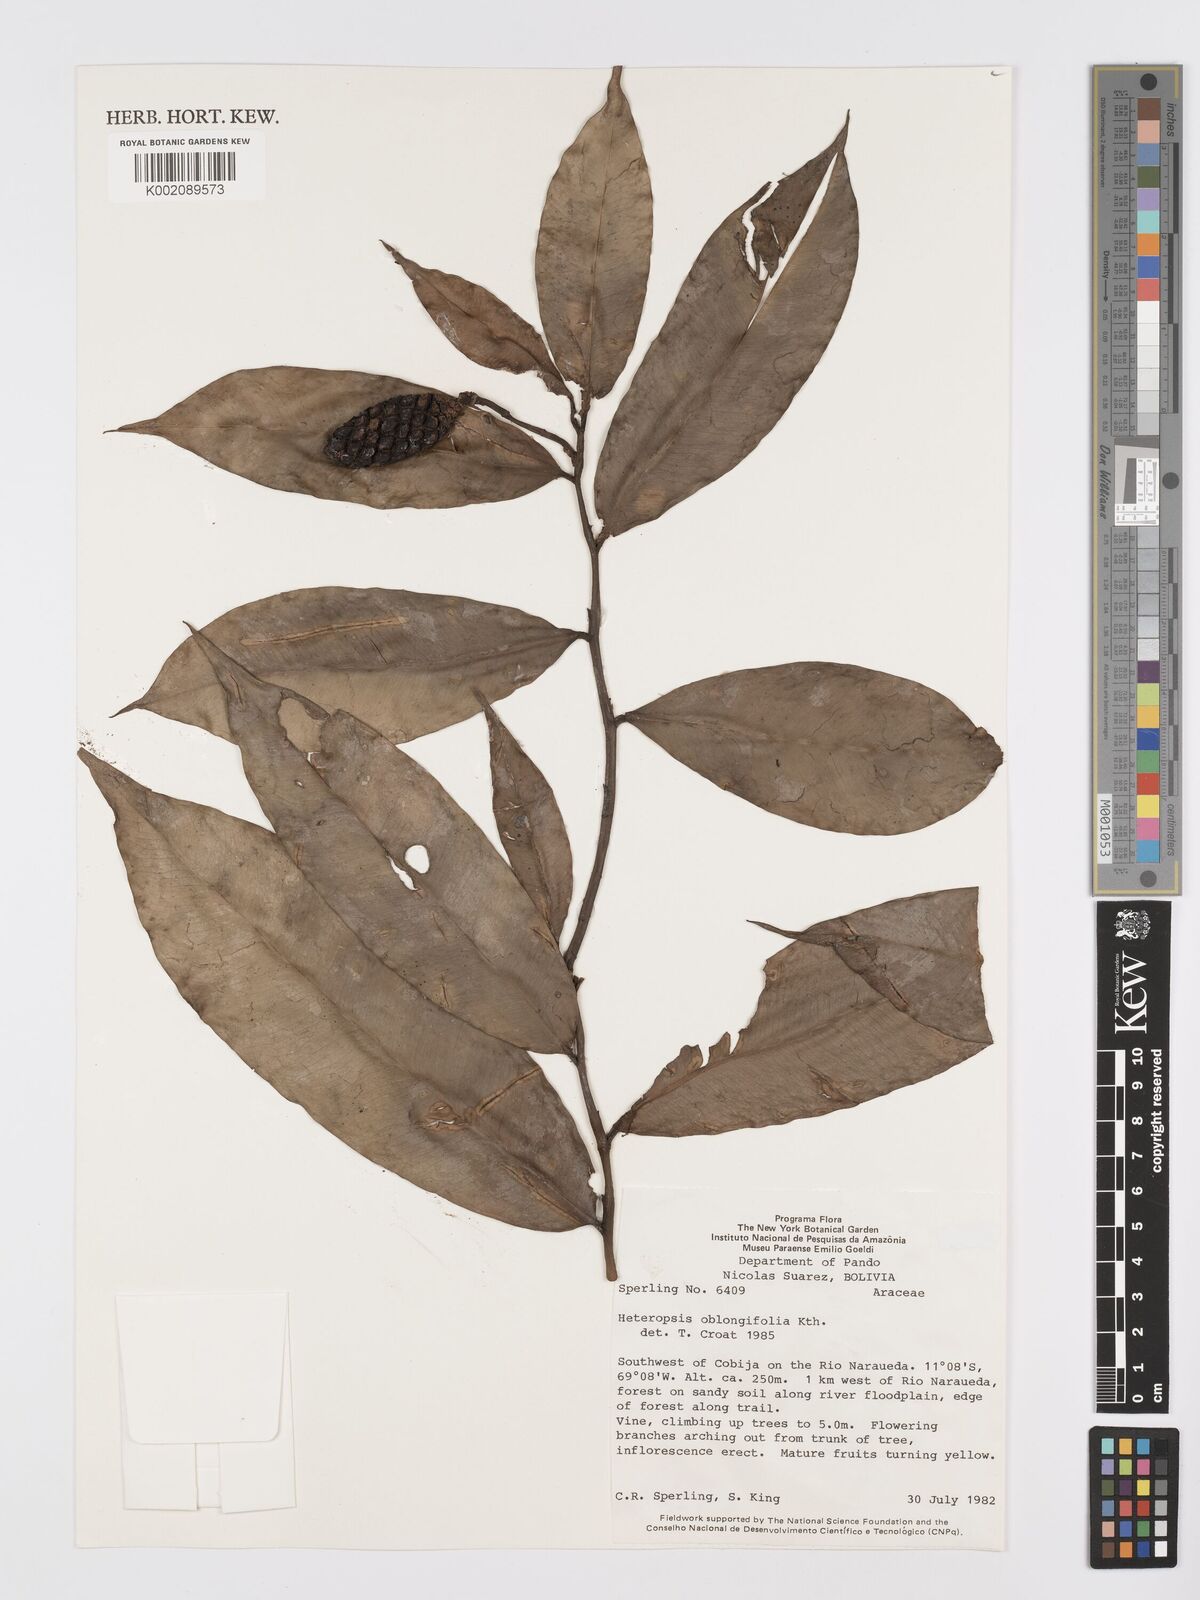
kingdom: Plantae
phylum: Tracheophyta
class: Liliopsida
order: Alismatales
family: Araceae
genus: Heteropsis
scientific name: Heteropsis oblongifolia
